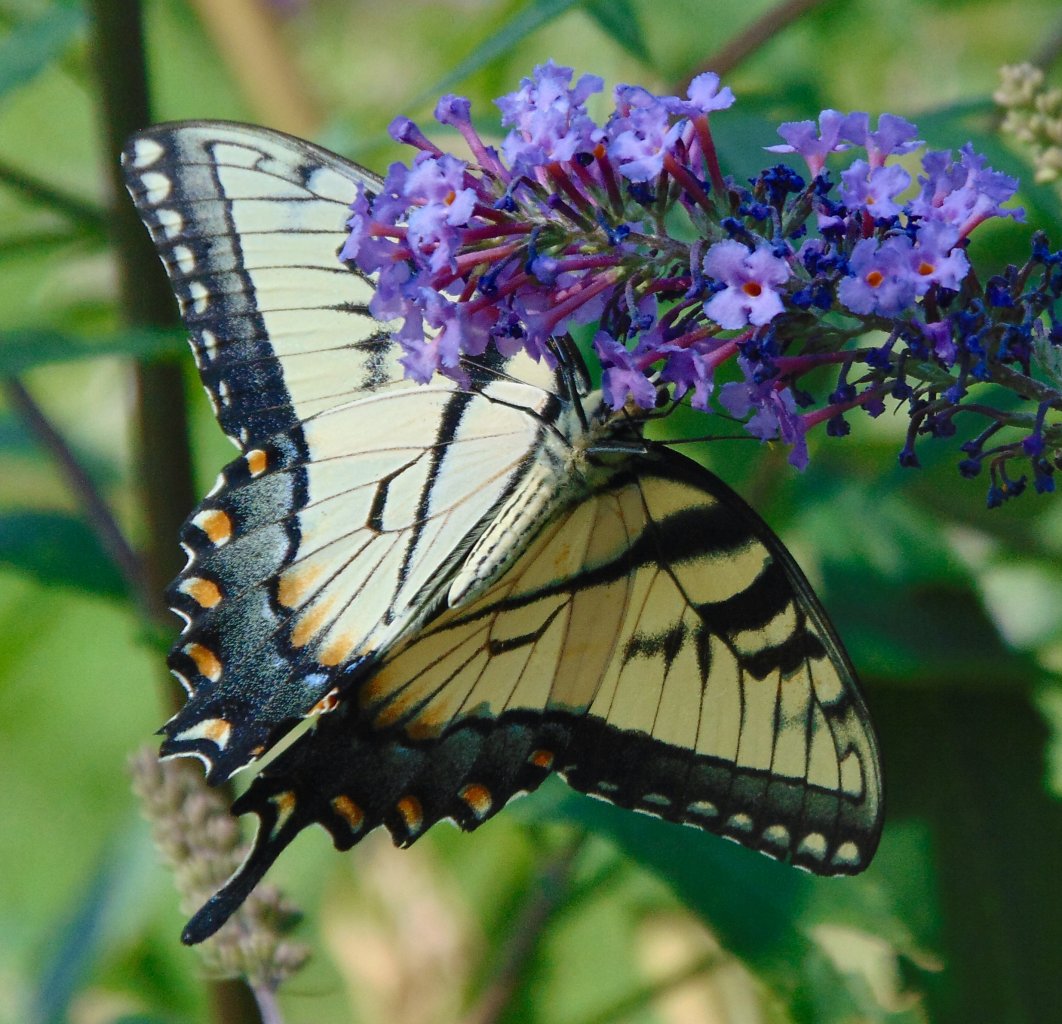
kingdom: Animalia
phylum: Arthropoda
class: Insecta
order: Lepidoptera
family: Papilionidae
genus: Pterourus
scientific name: Pterourus glaucus
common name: Eastern Tiger Swallowtail
